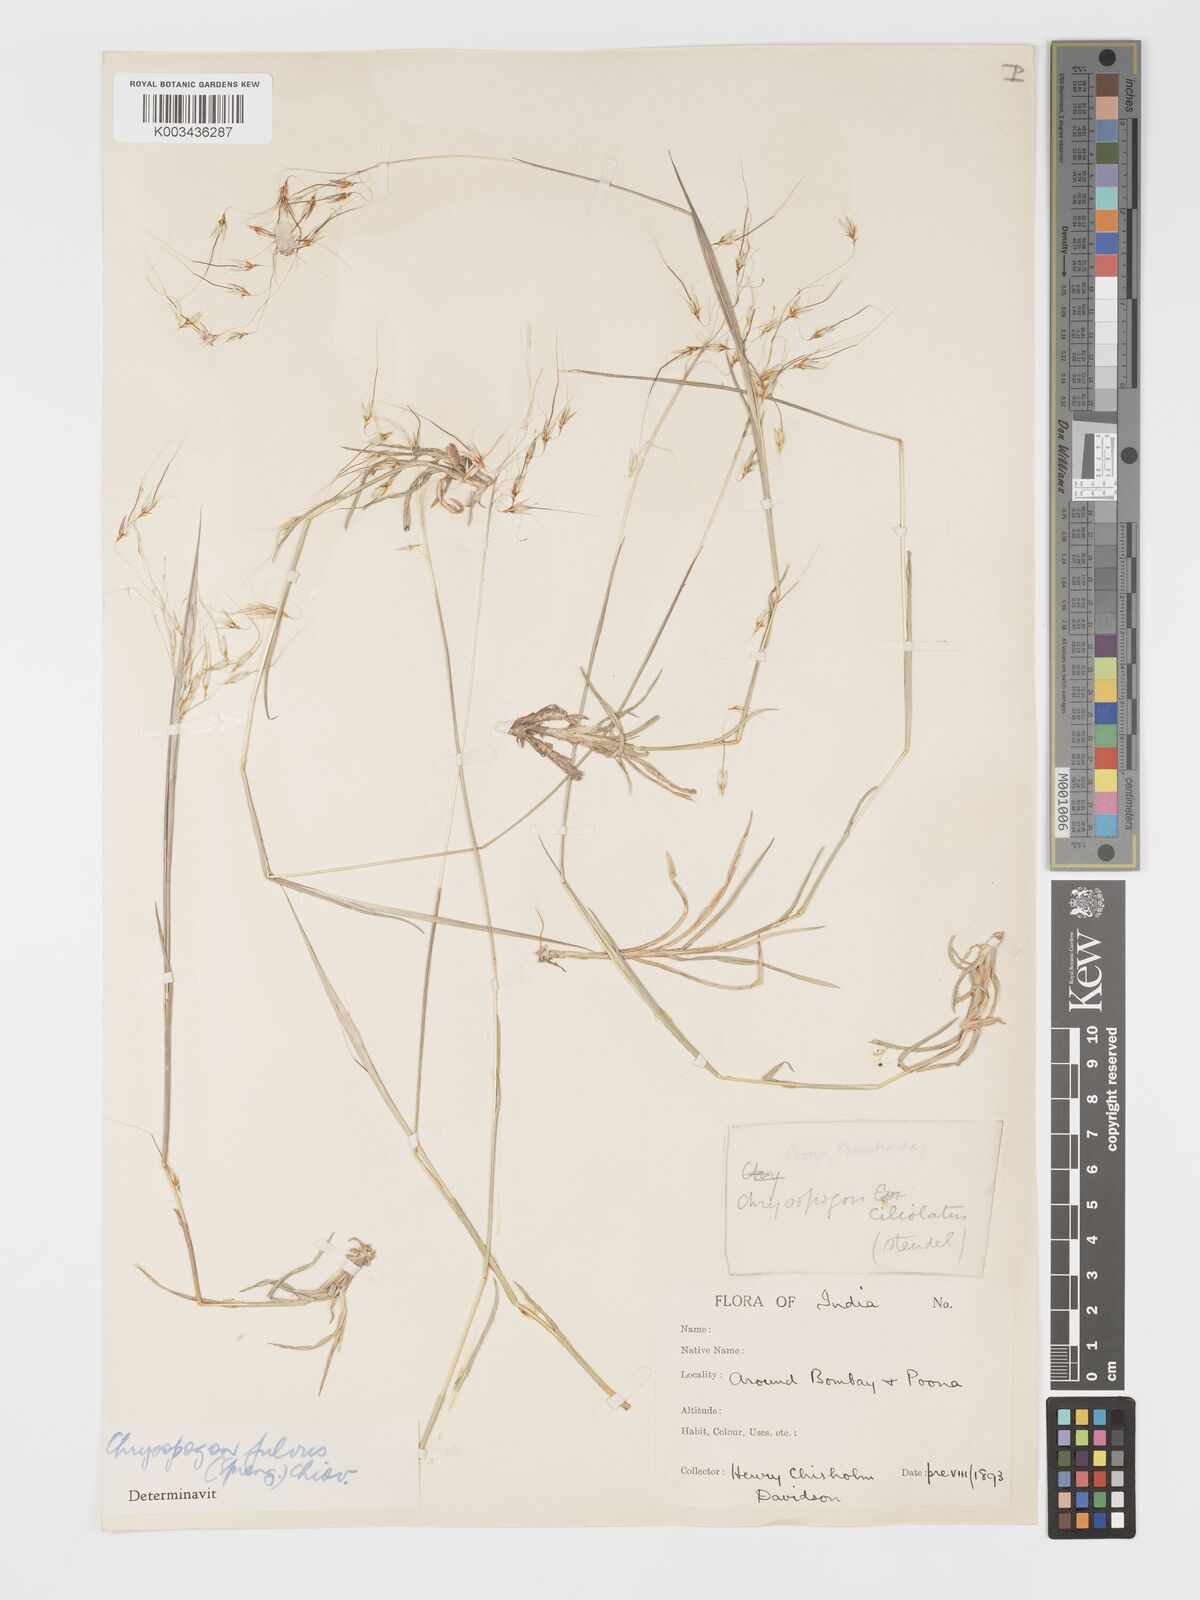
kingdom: Plantae
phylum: Tracheophyta
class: Liliopsida
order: Poales
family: Poaceae
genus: Chrysopogon
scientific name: Chrysopogon fulvus
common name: Red false beardgrass
